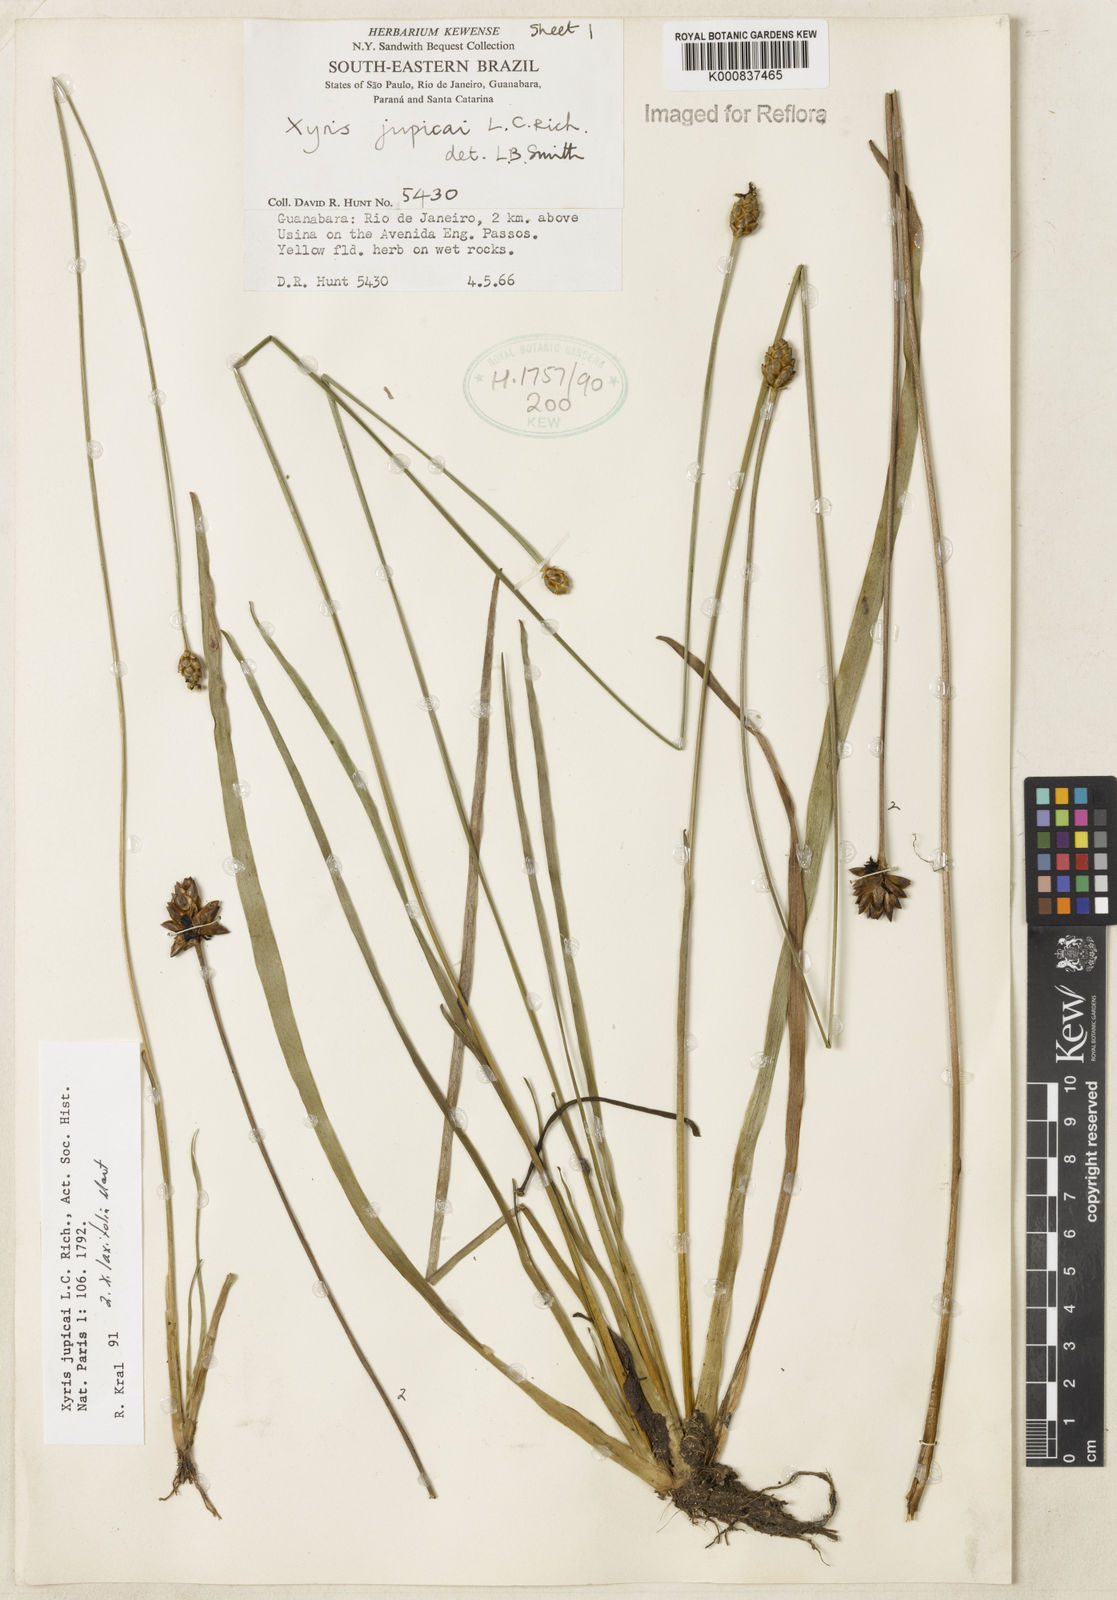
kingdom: Plantae
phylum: Tracheophyta
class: Liliopsida
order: Poales
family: Xyridaceae
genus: Xyris
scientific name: Xyris jupicai
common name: Richard's yelloweyed grass
